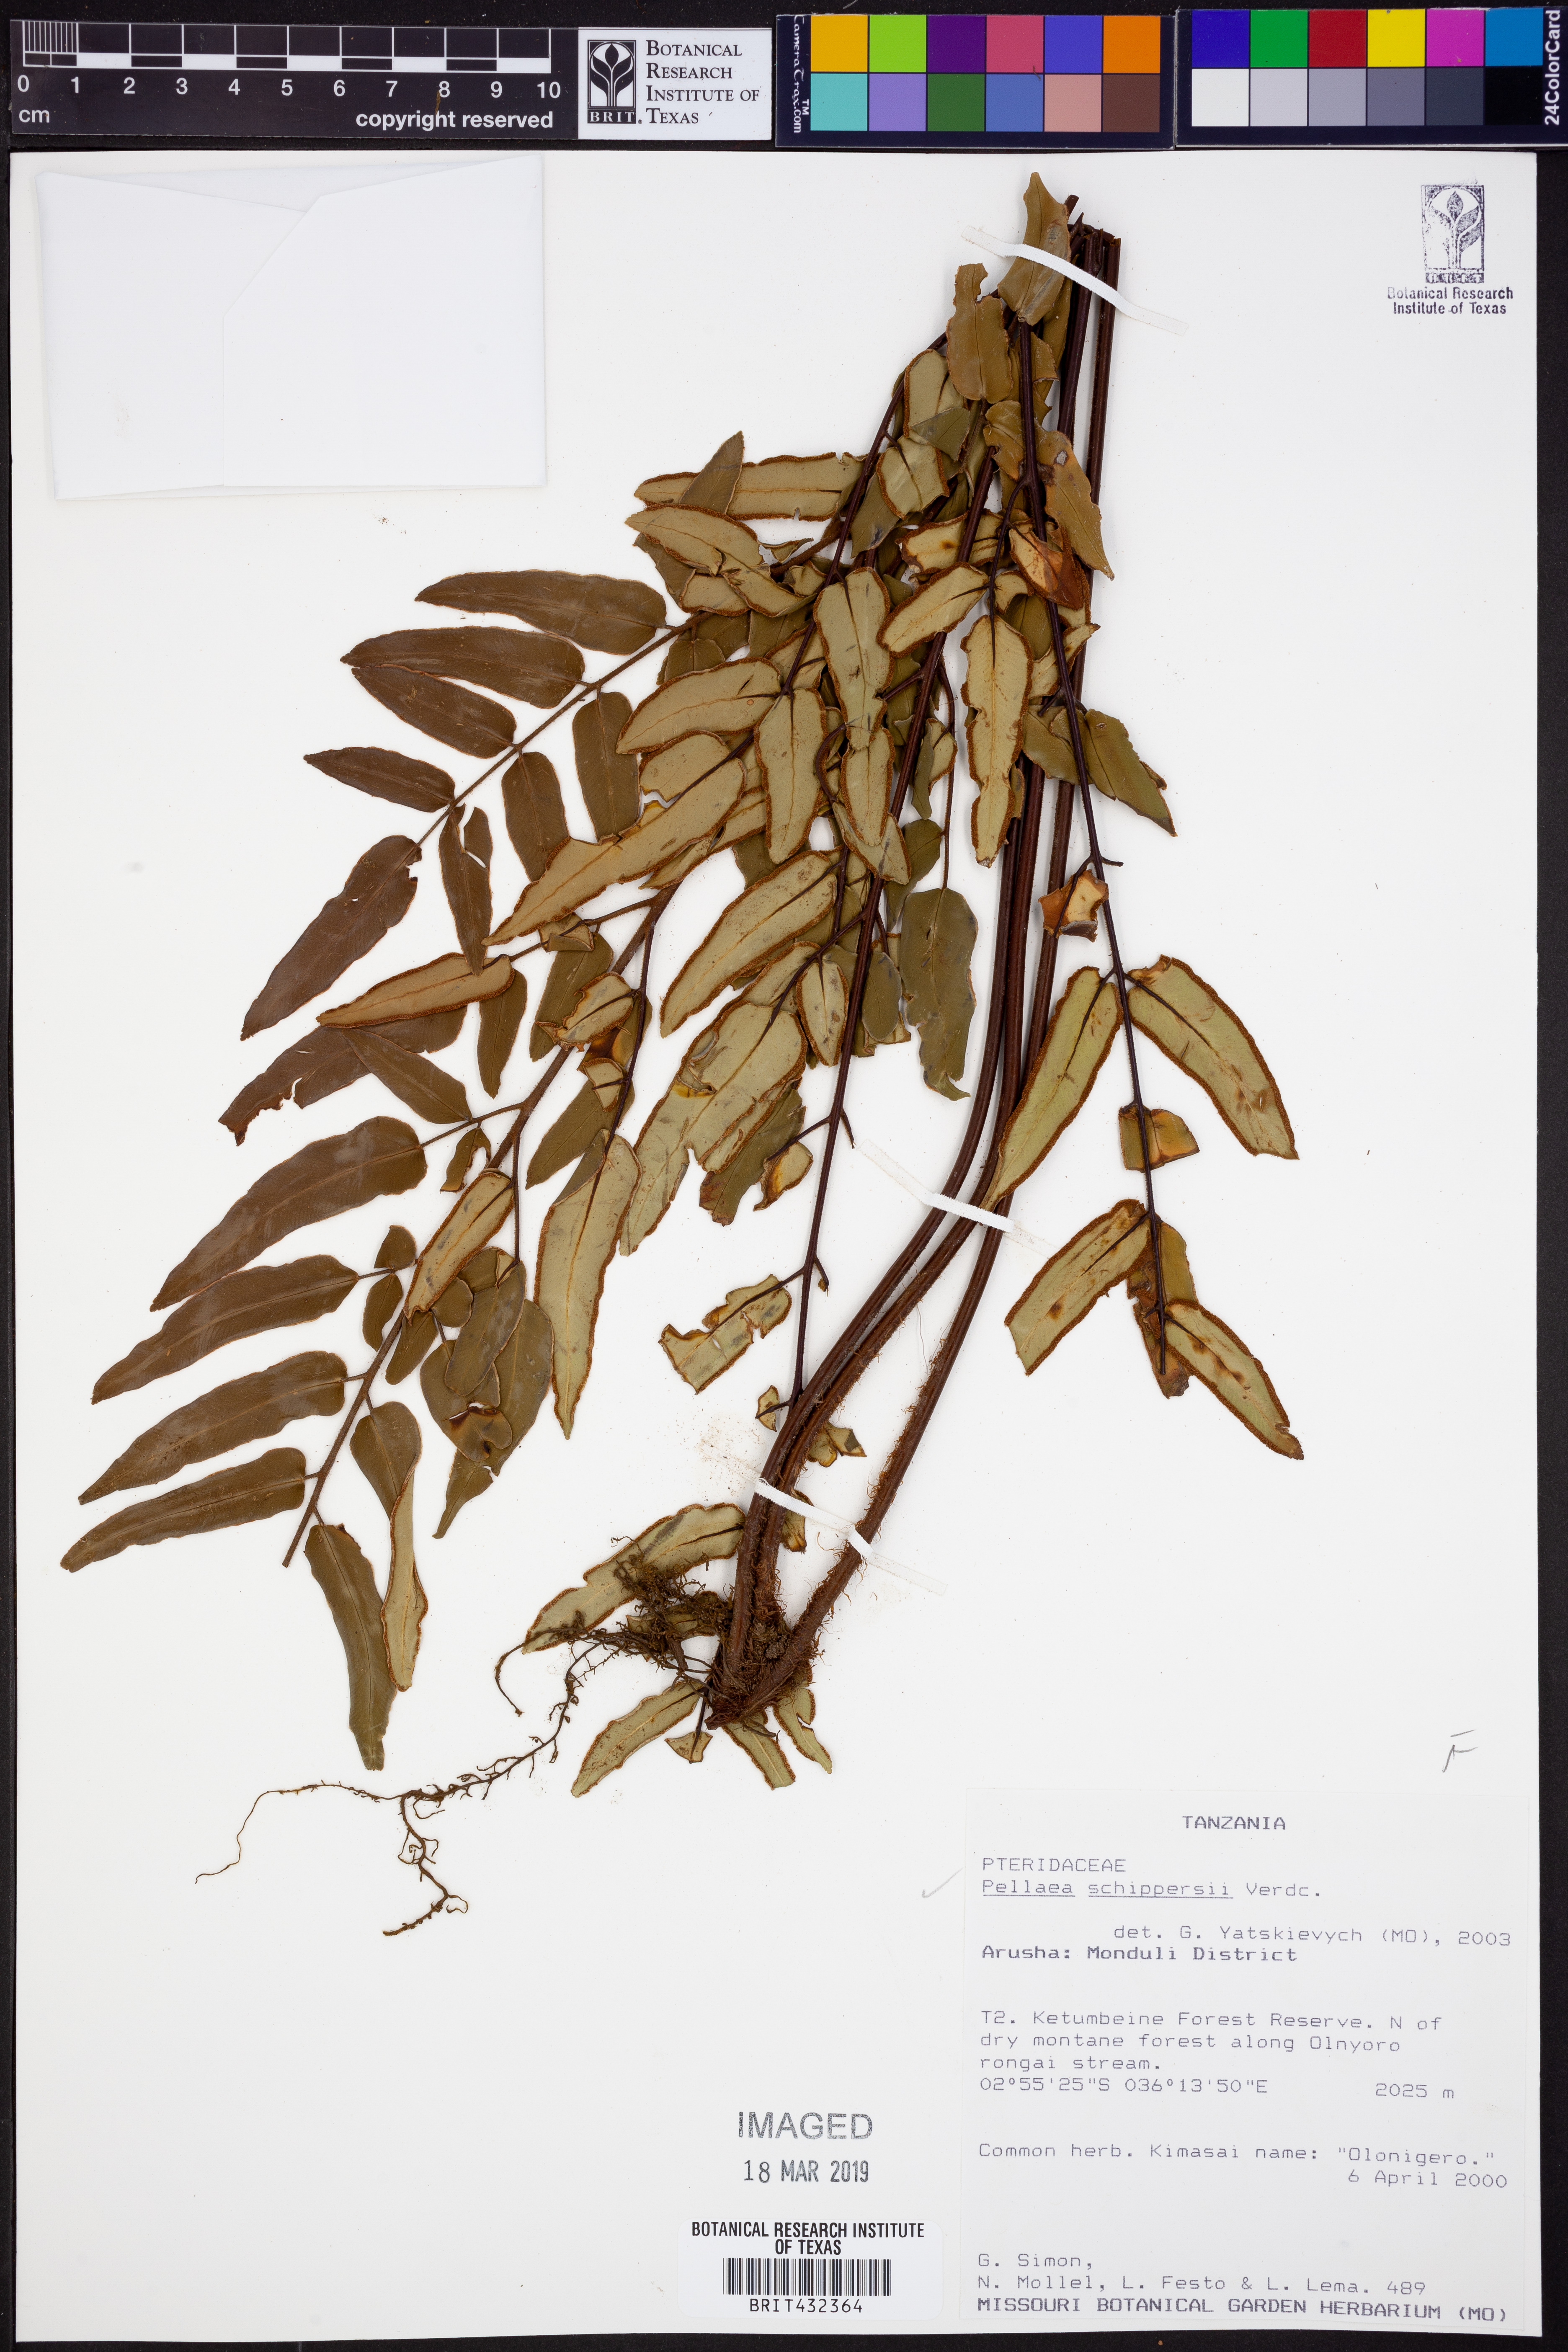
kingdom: Plantae
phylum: Tracheophyta
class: Polypodiopsida
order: Polypodiales
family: Pteridaceae
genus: Pellaea
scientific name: Pellaea schippersii
